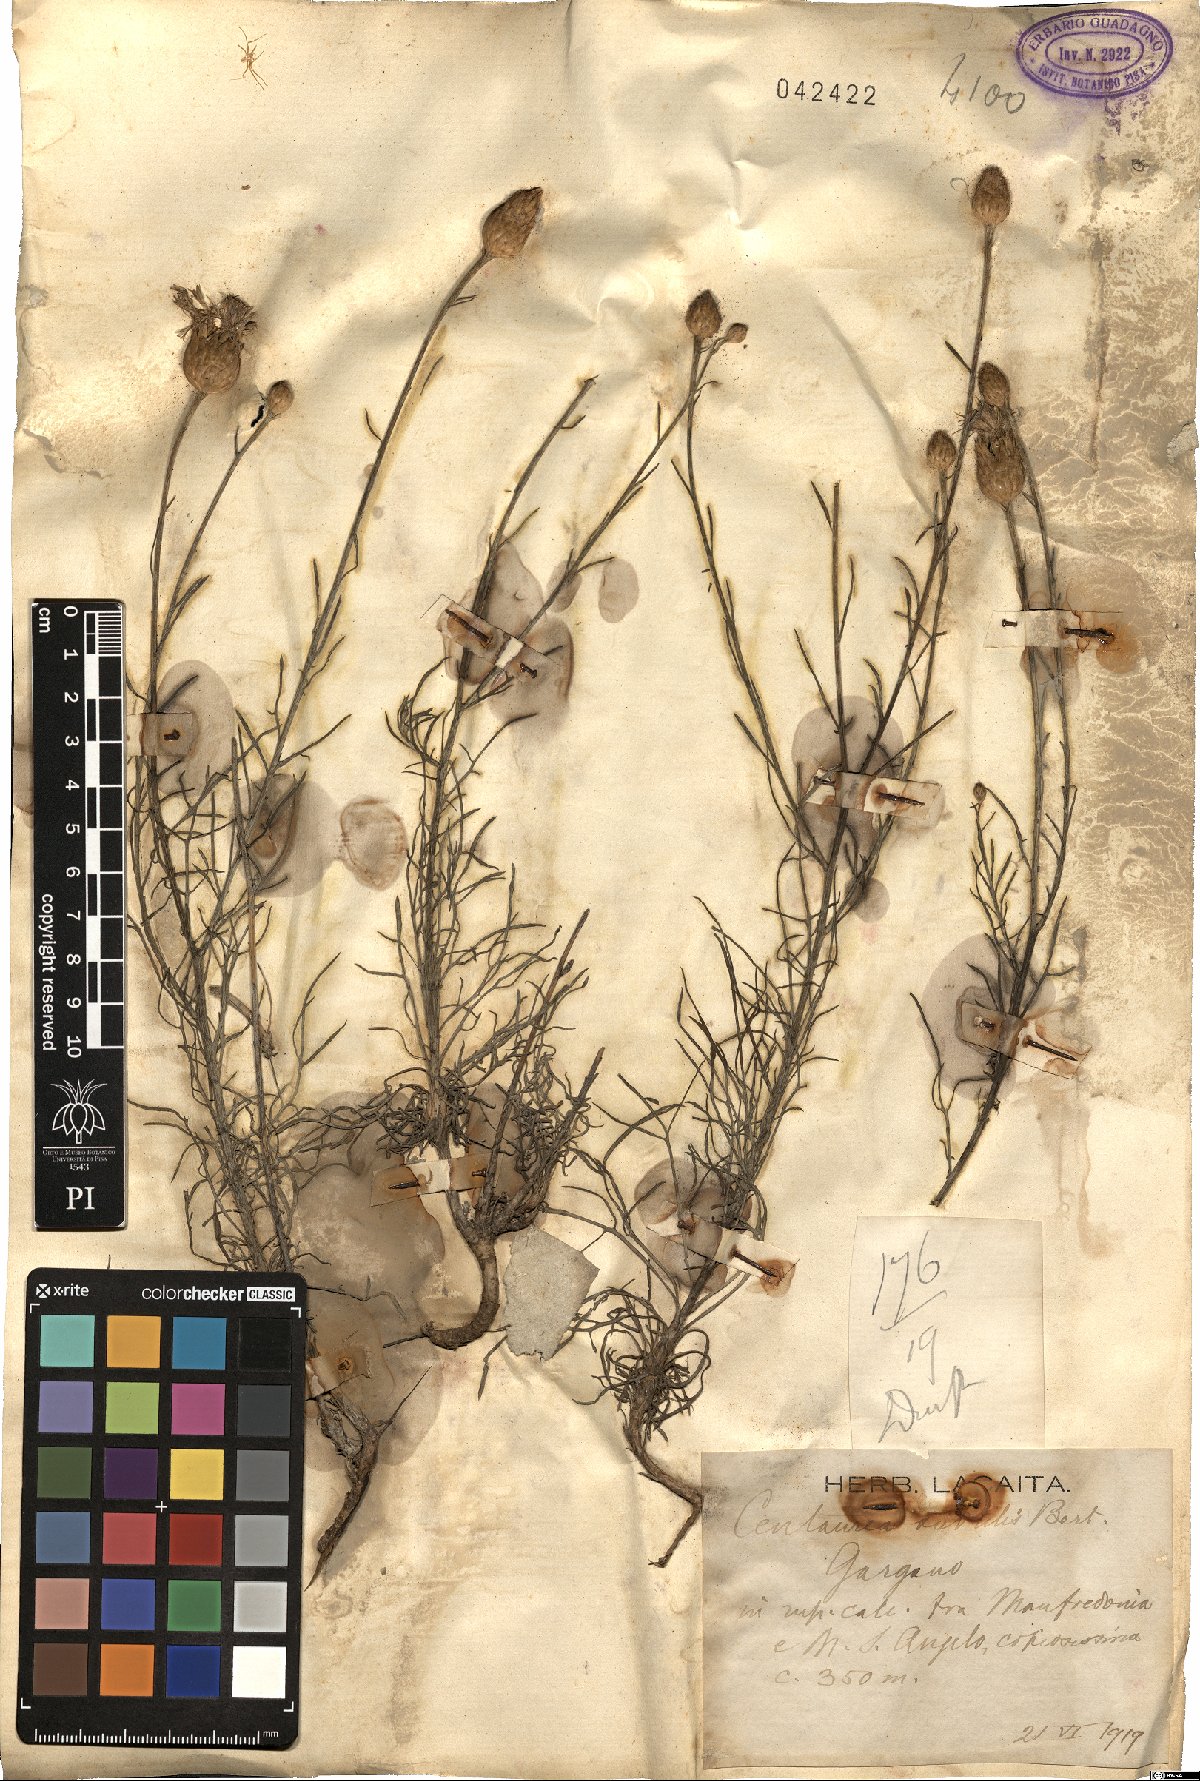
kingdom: Plantae
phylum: Tracheophyta
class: Magnoliopsida
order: Asterales
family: Asteraceae
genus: Centaurea
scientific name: Centaurea subtilis
